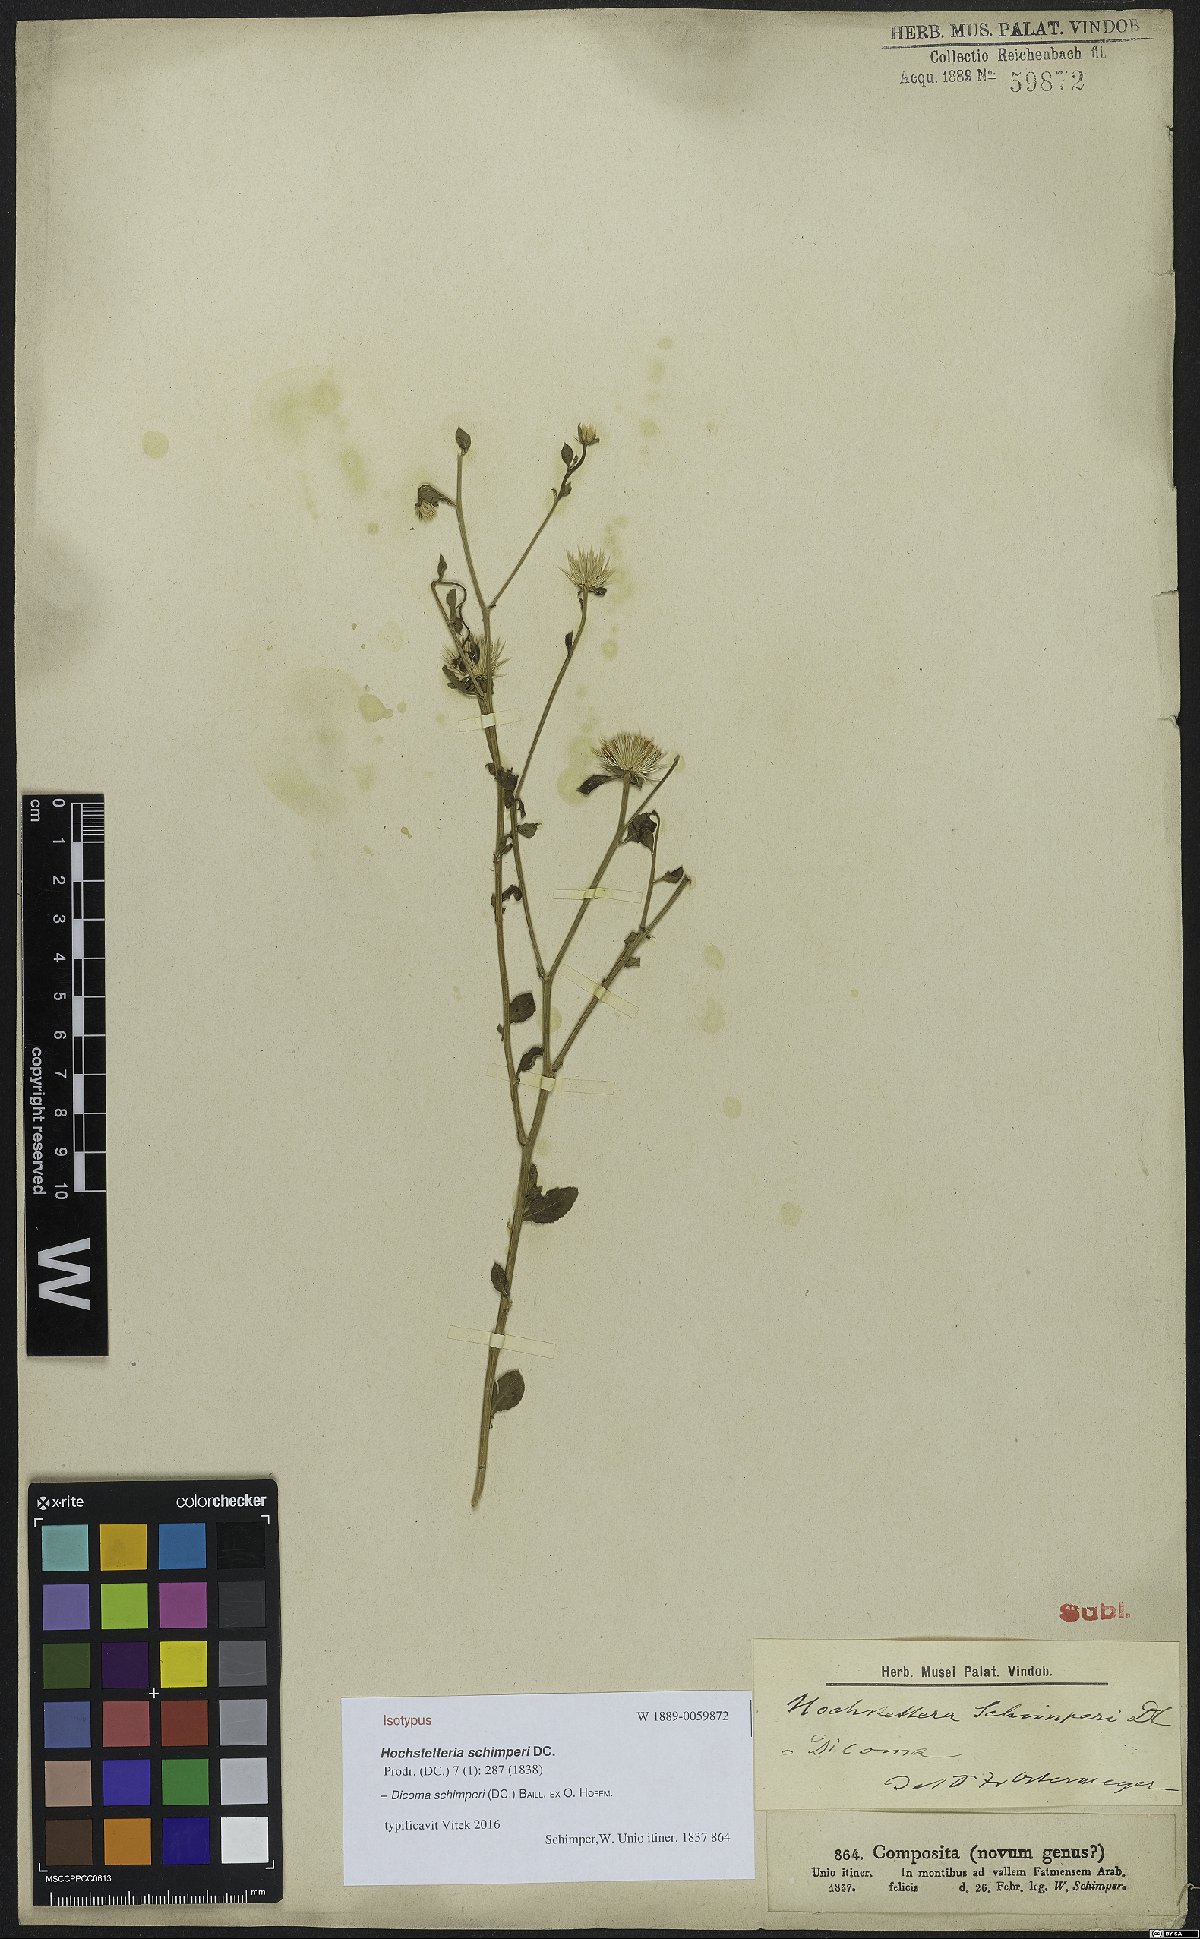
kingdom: Plantae
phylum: Tracheophyta
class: Magnoliopsida
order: Asterales
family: Asteraceae
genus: Dicoma
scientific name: Dicoma schimperi
